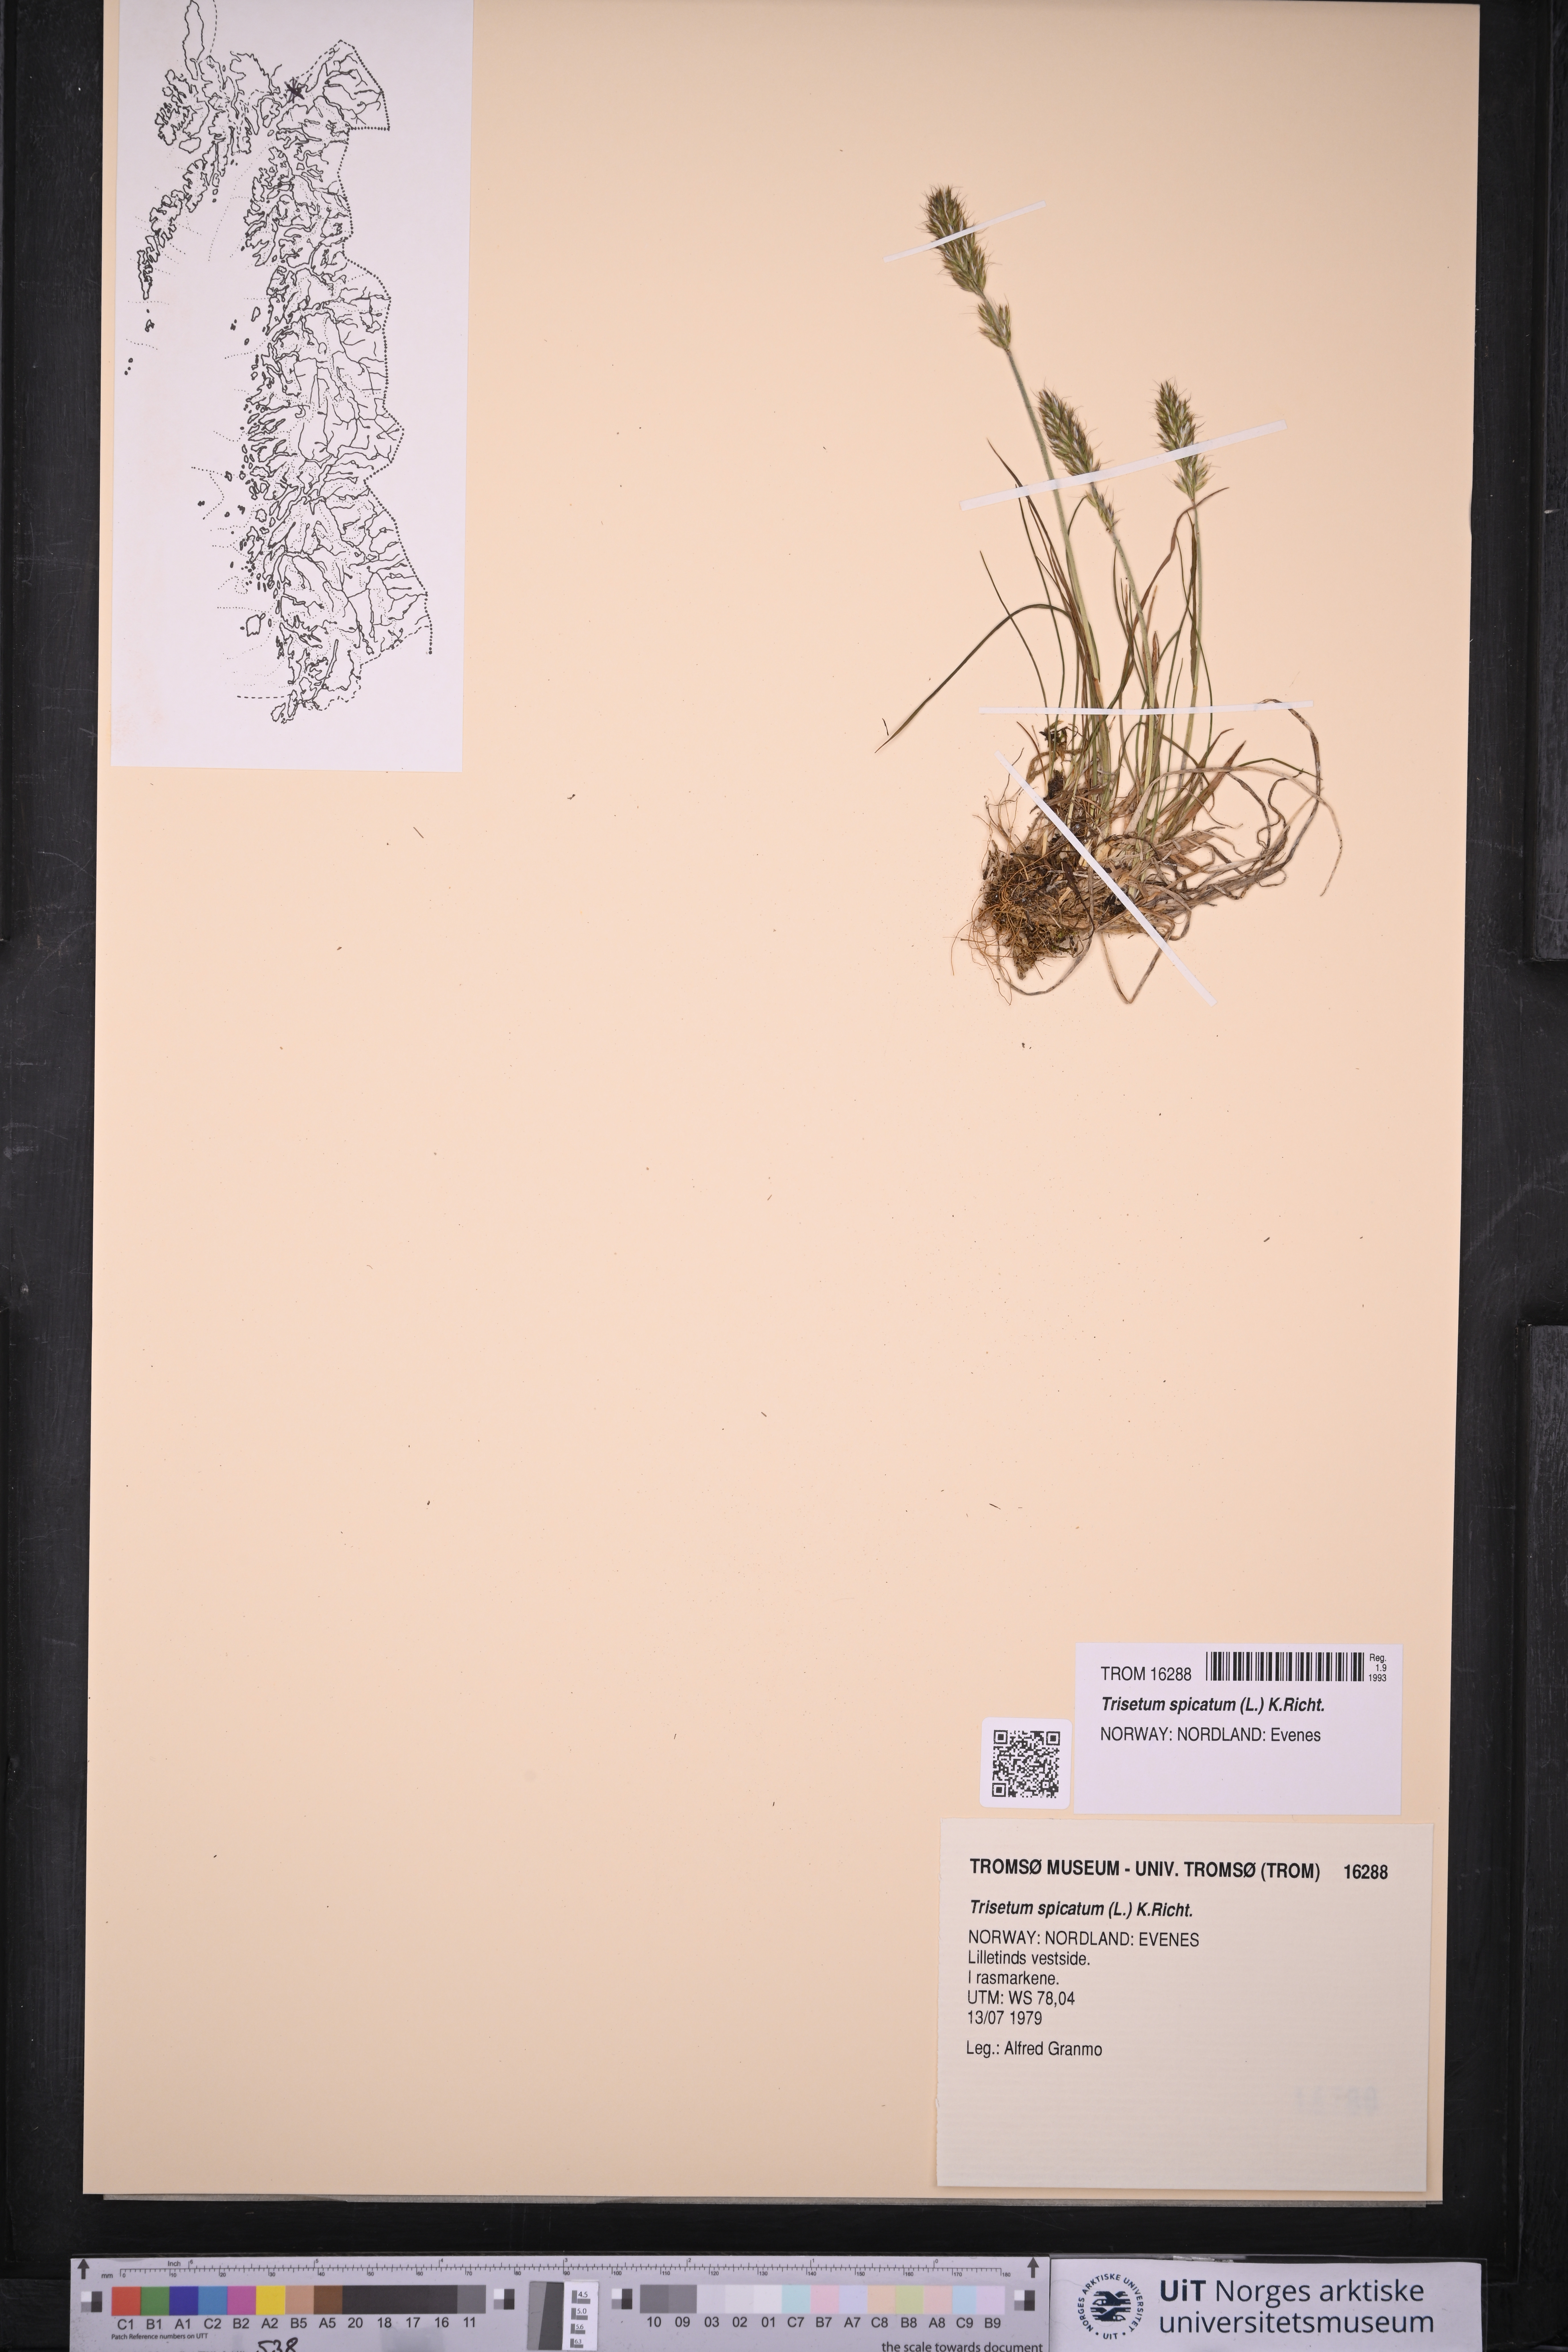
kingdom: Plantae
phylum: Tracheophyta
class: Liliopsida
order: Poales
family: Poaceae
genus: Koeleria
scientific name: Koeleria spicata
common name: Mountain trisetum
